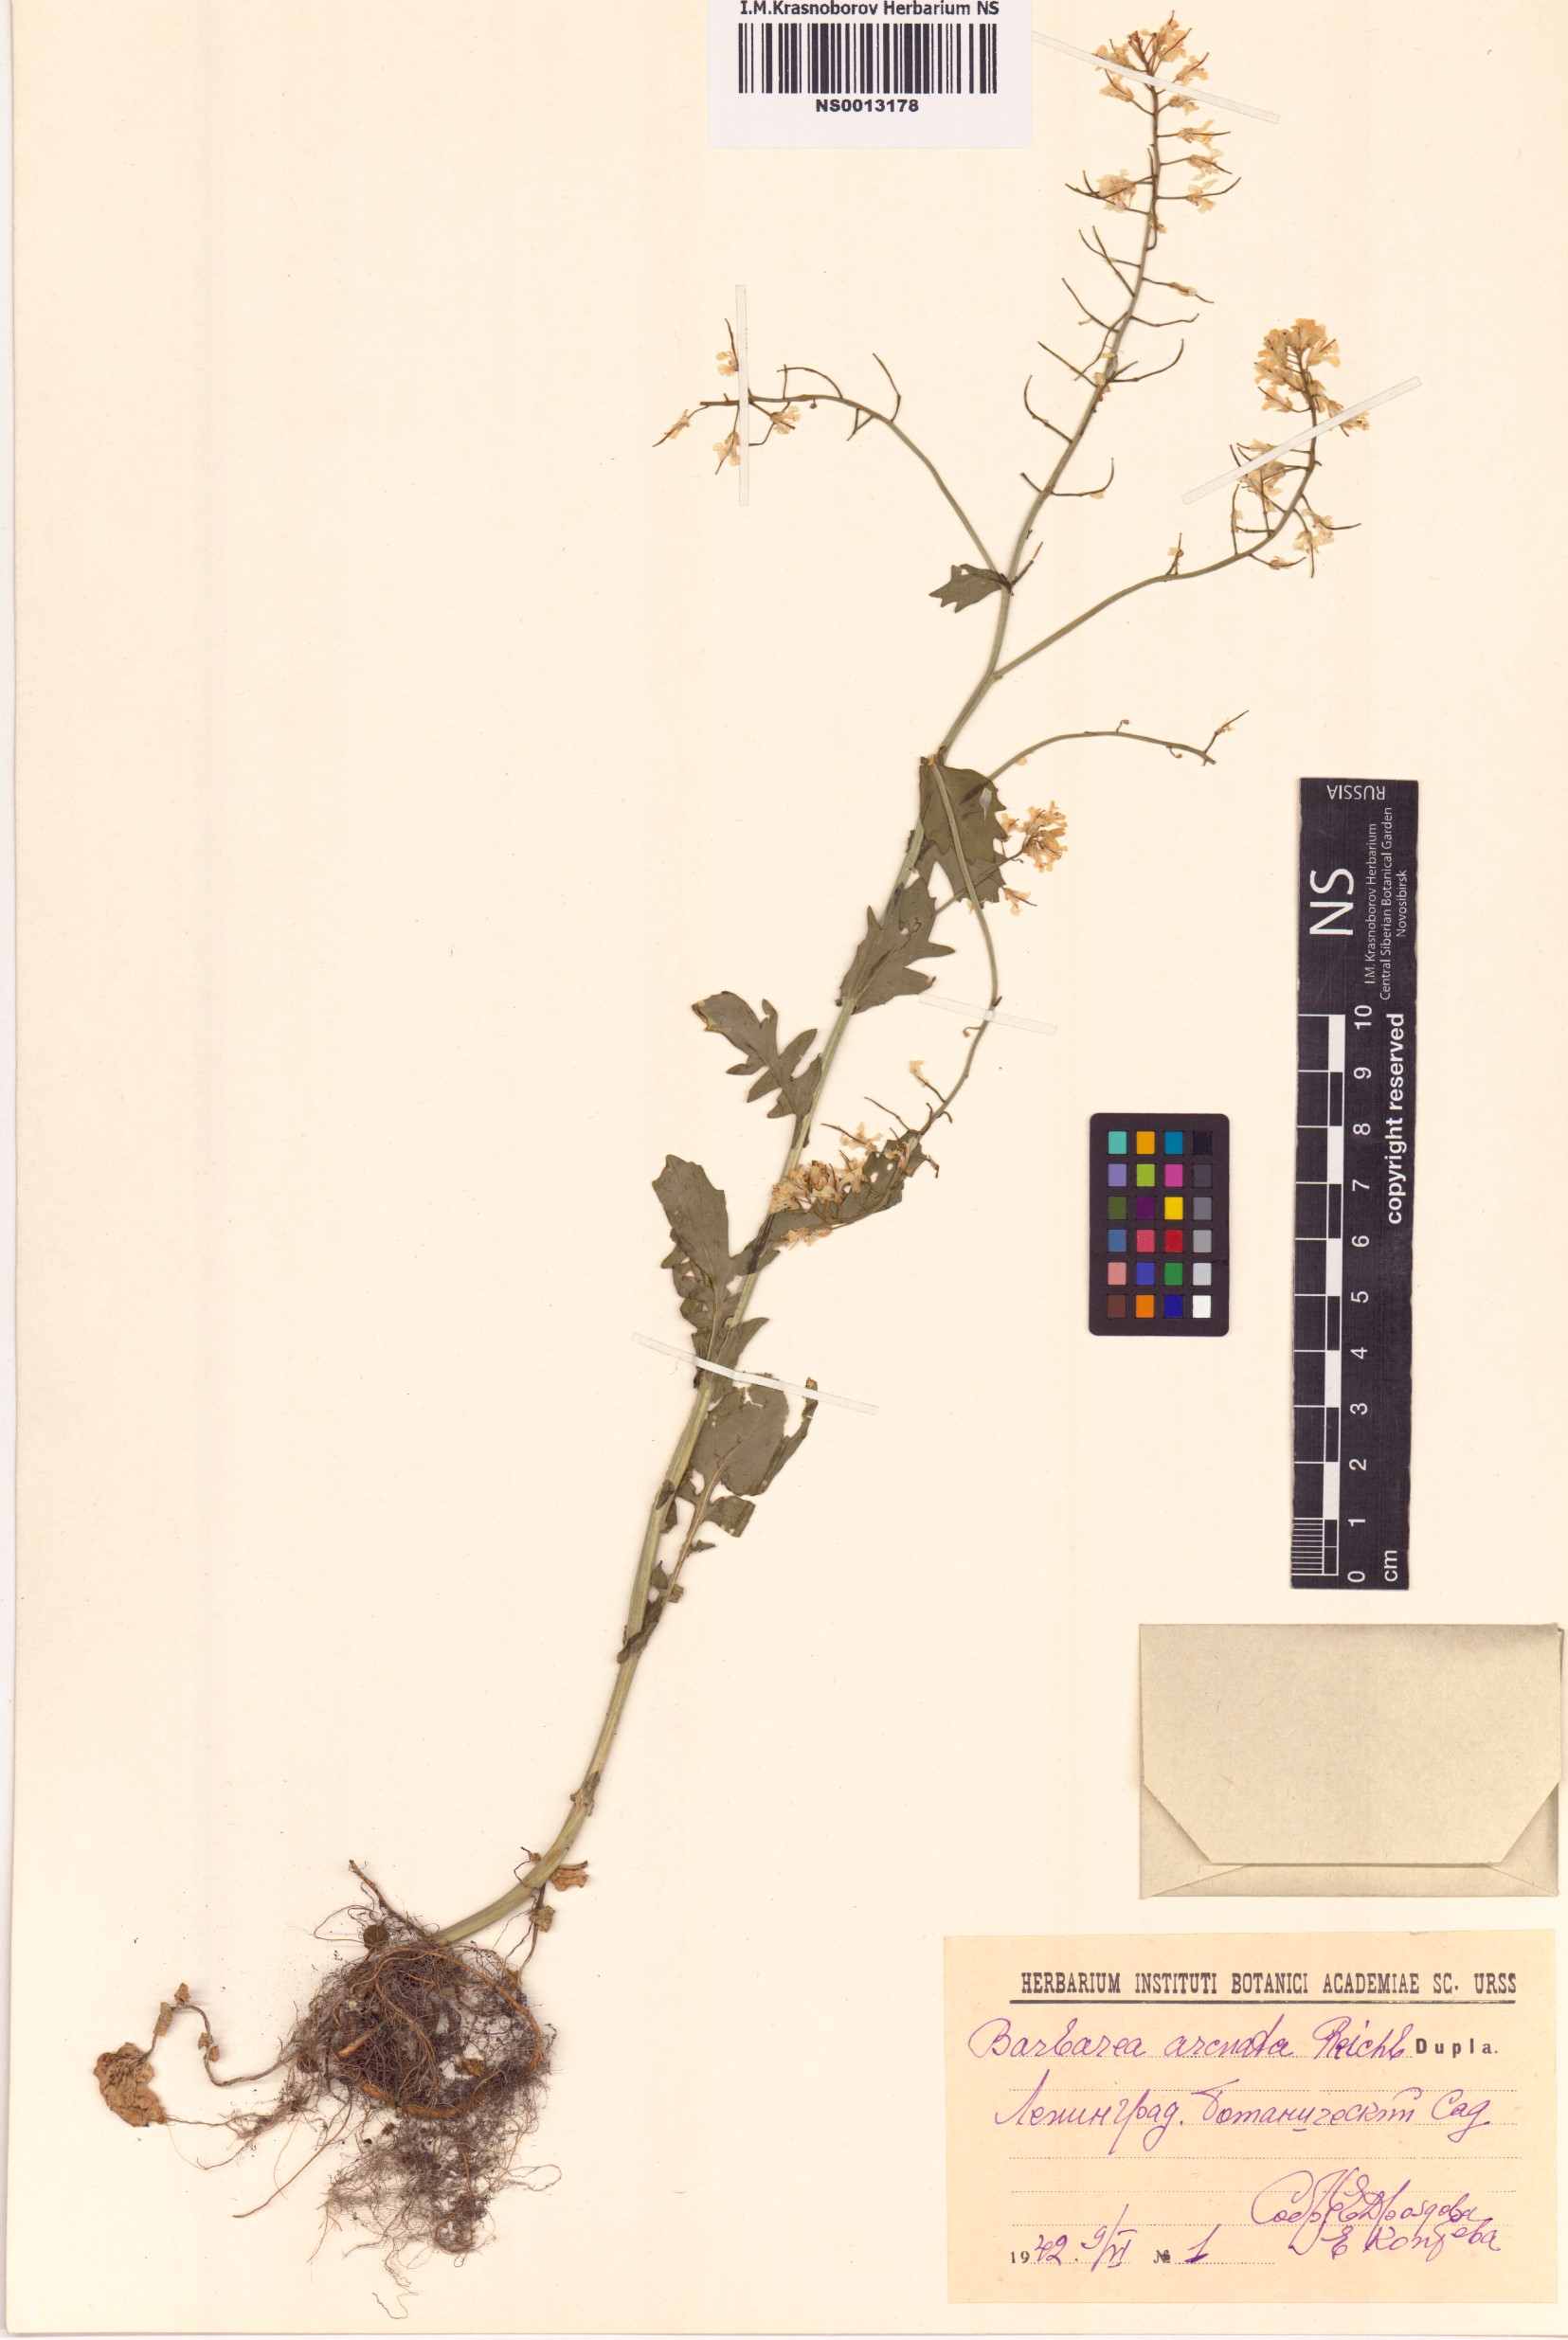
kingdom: Plantae
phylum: Tracheophyta
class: Magnoliopsida
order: Brassicales
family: Brassicaceae
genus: Barbarea
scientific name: Barbarea vulgaris
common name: Cressy-greens
